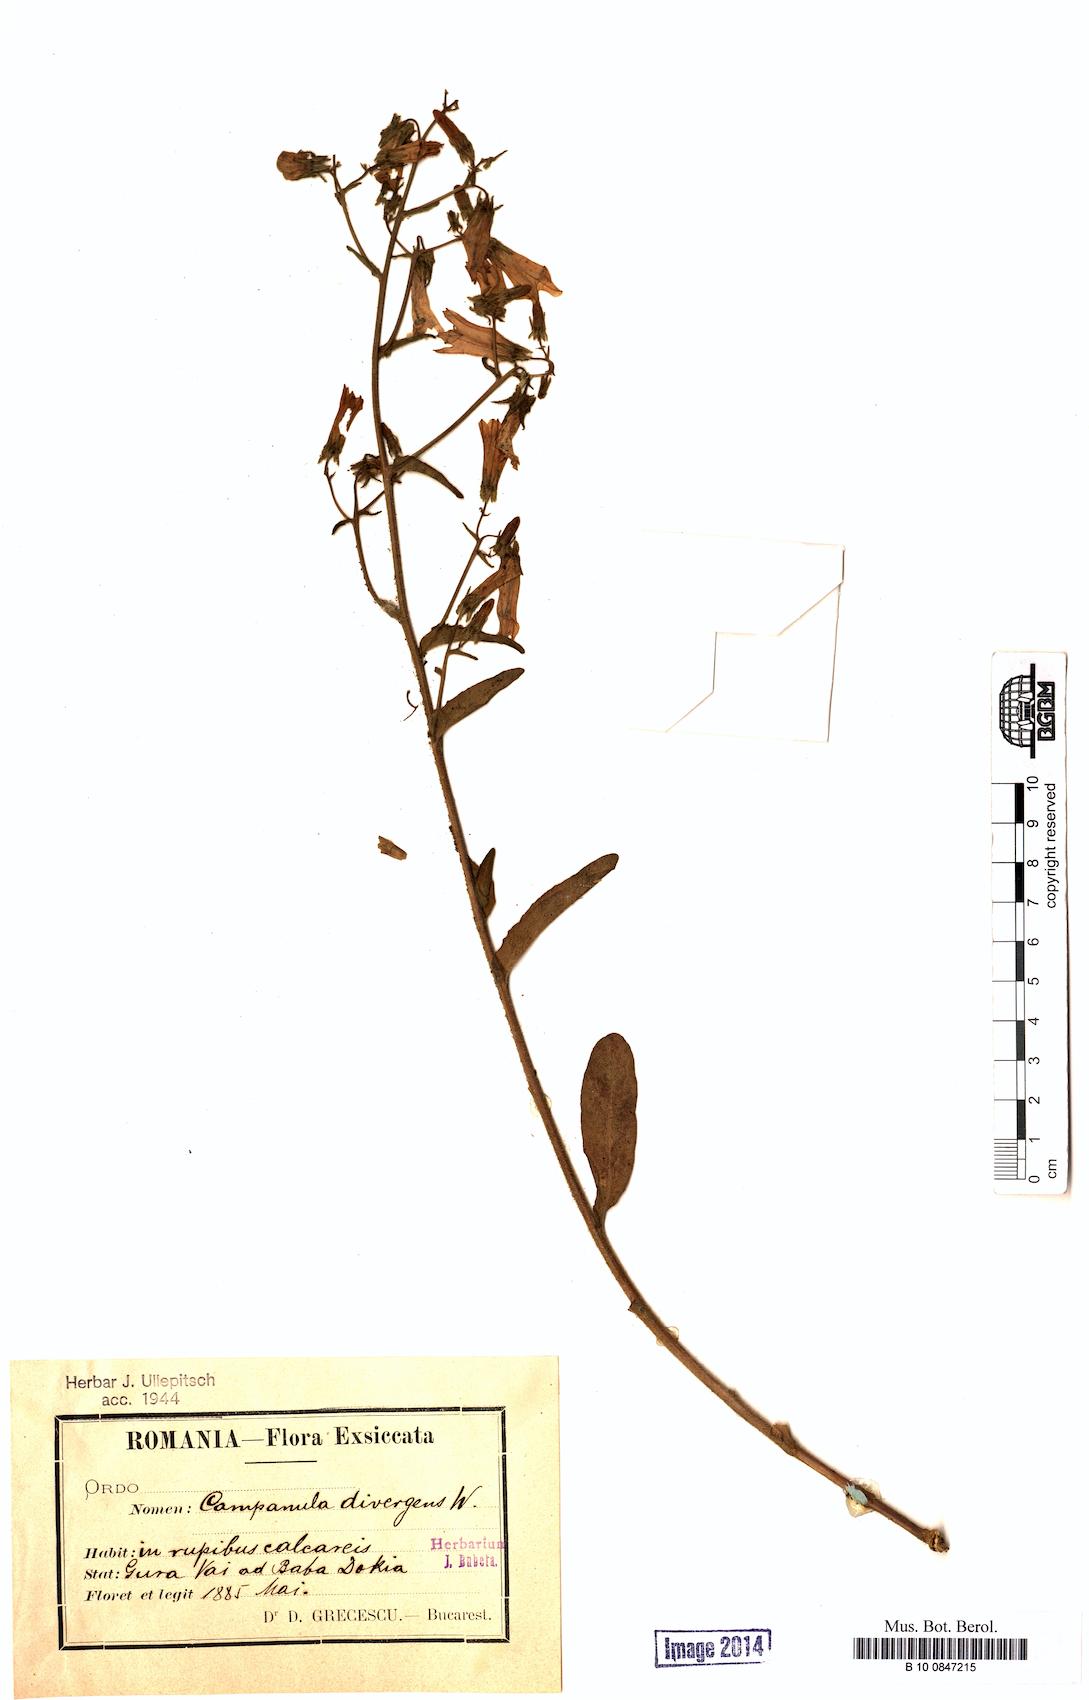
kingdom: Plantae
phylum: Tracheophyta
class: Magnoliopsida
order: Asterales
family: Campanulaceae
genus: Campanula
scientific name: Campanula sibirica
